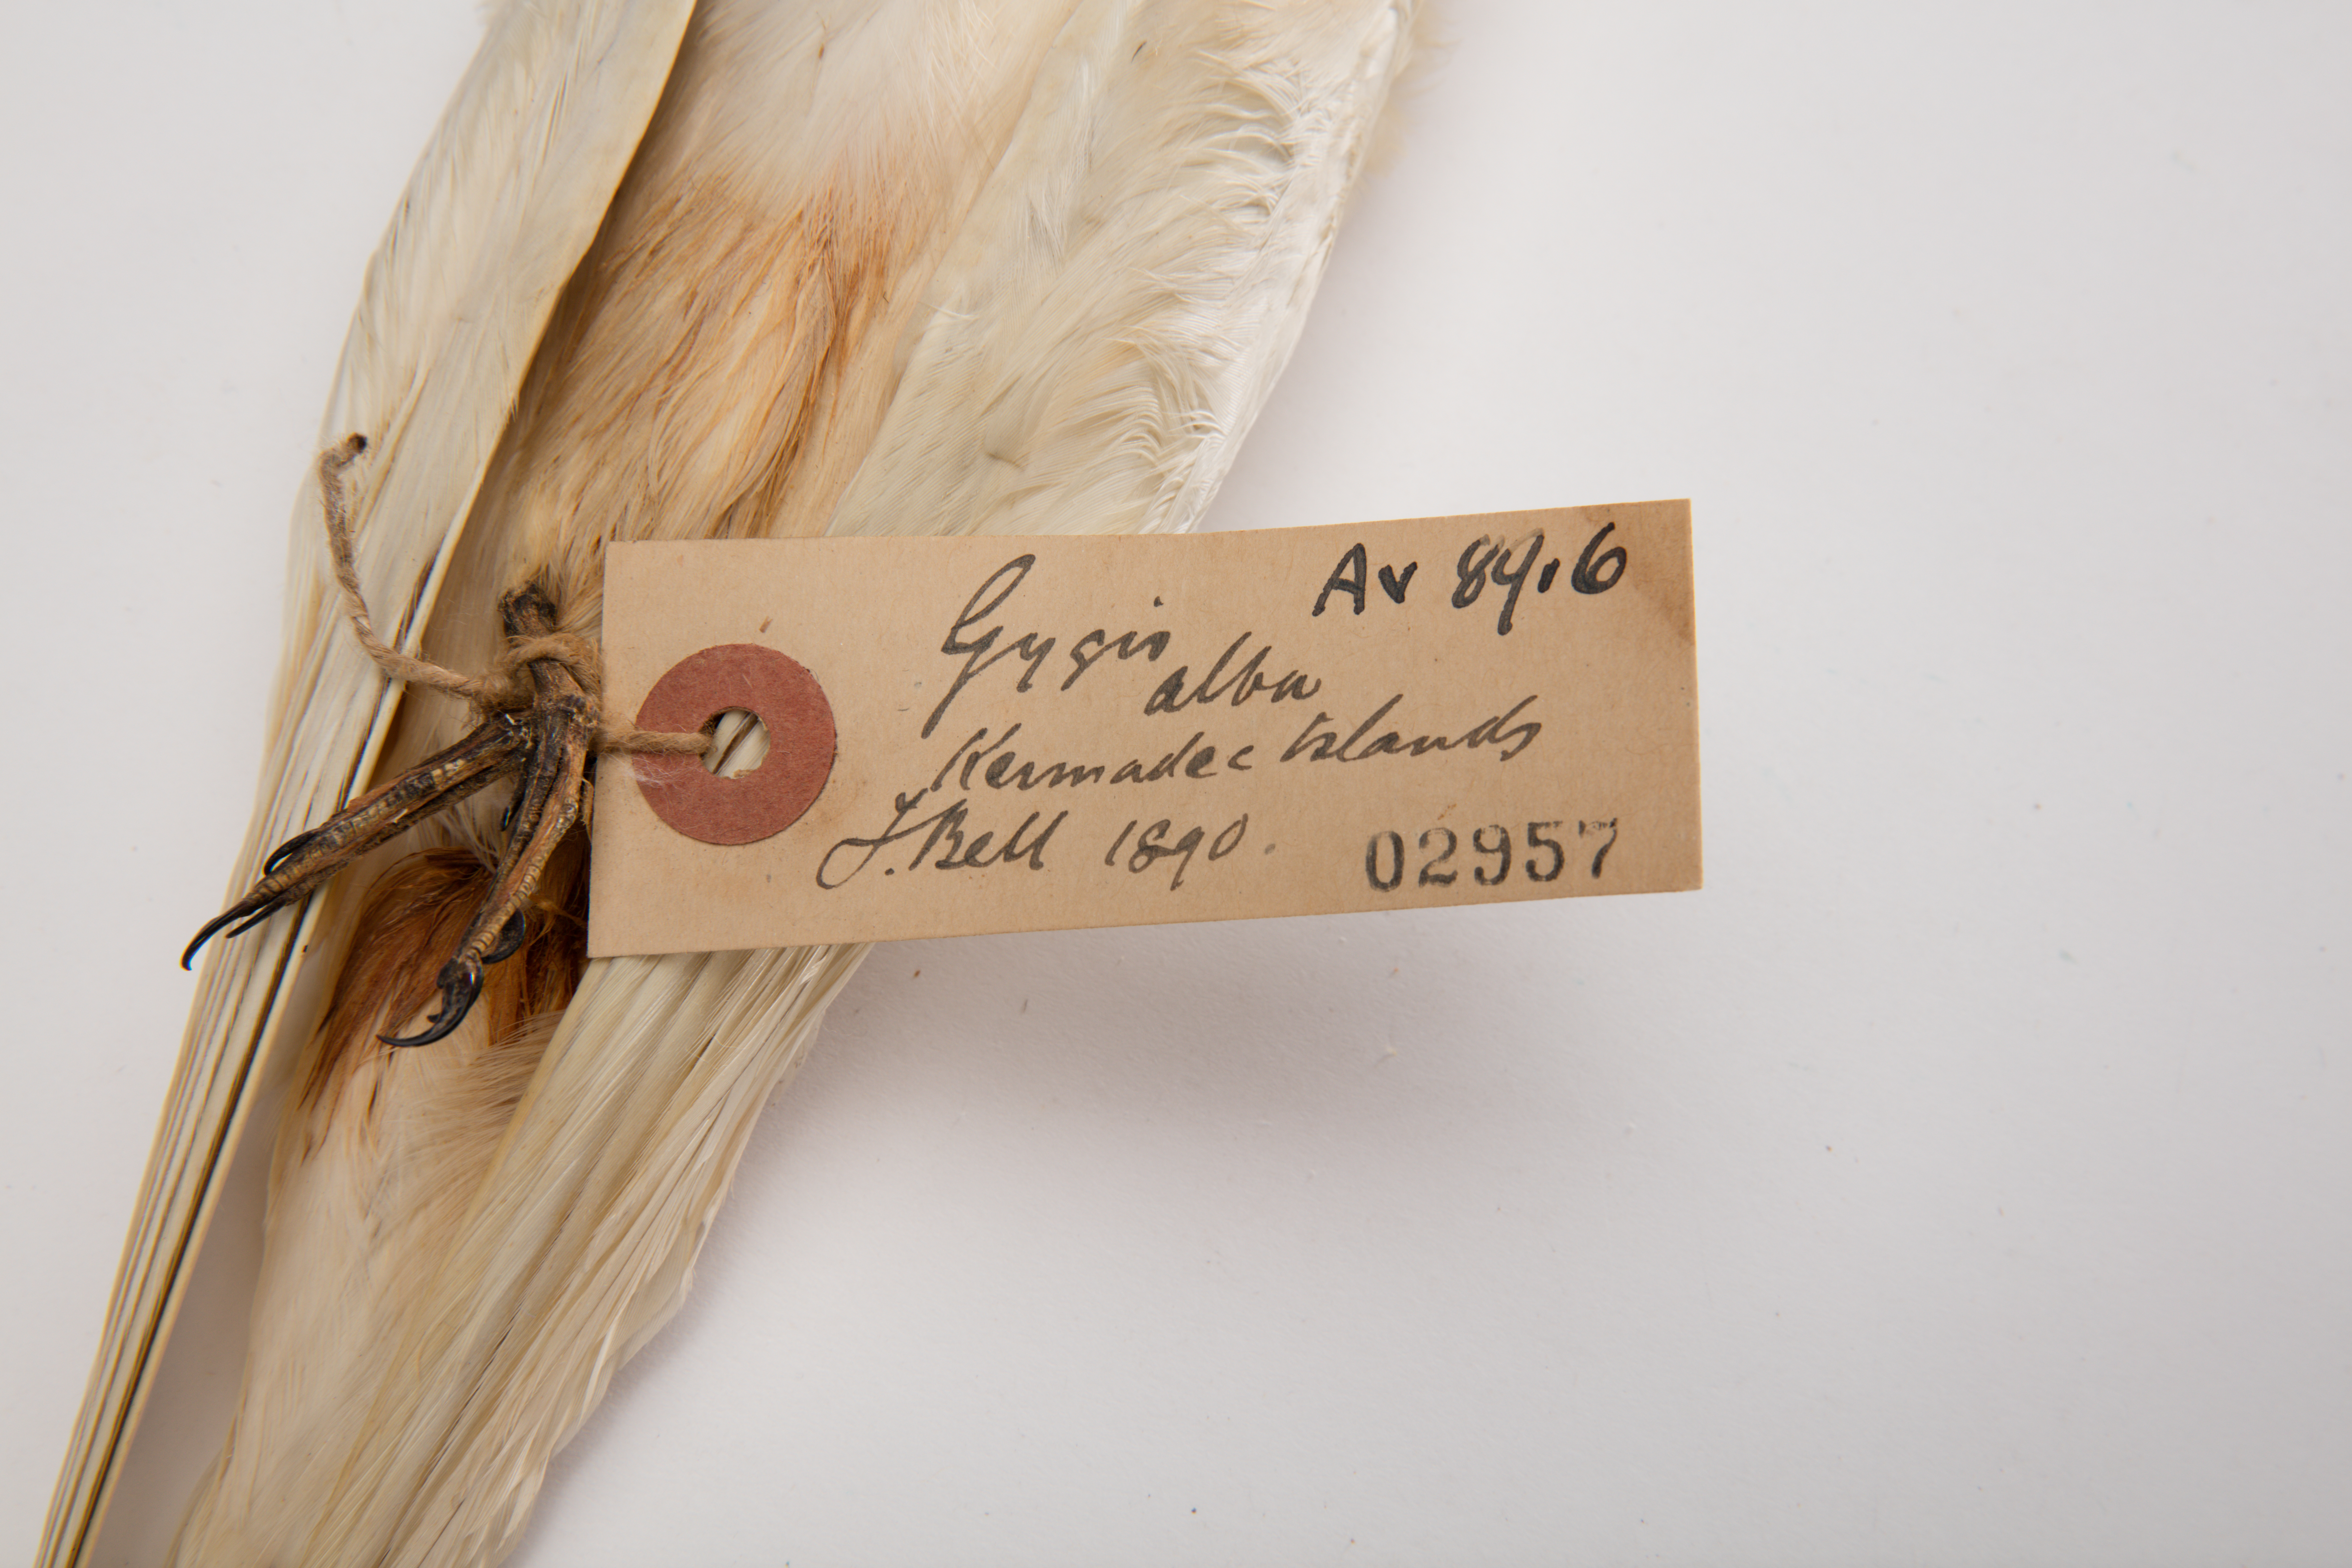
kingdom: Animalia
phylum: Chordata
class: Aves
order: Charadriiformes
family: Laridae
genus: Gygis
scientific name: Gygis alba
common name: White tern
